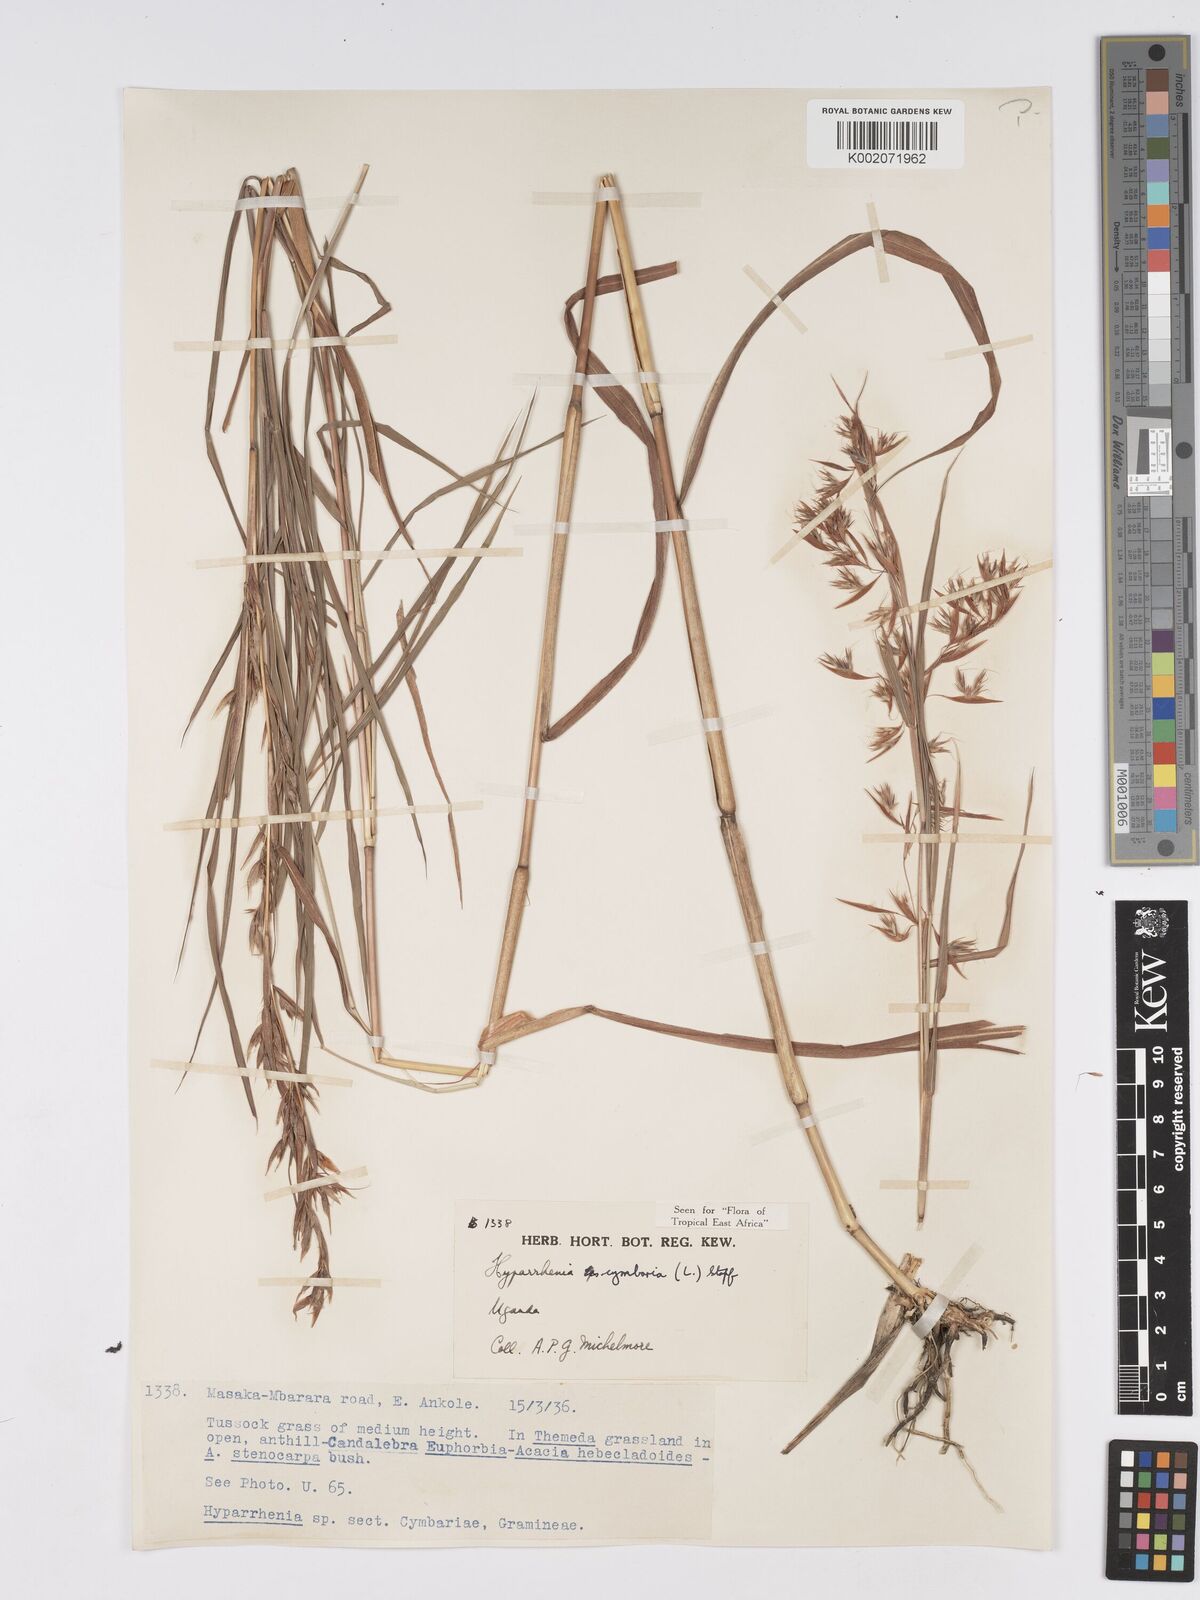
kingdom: Plantae
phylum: Tracheophyta
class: Liliopsida
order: Poales
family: Poaceae
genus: Hyparrhenia
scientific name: Hyparrhenia cymbaria
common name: Boat thatching grass
